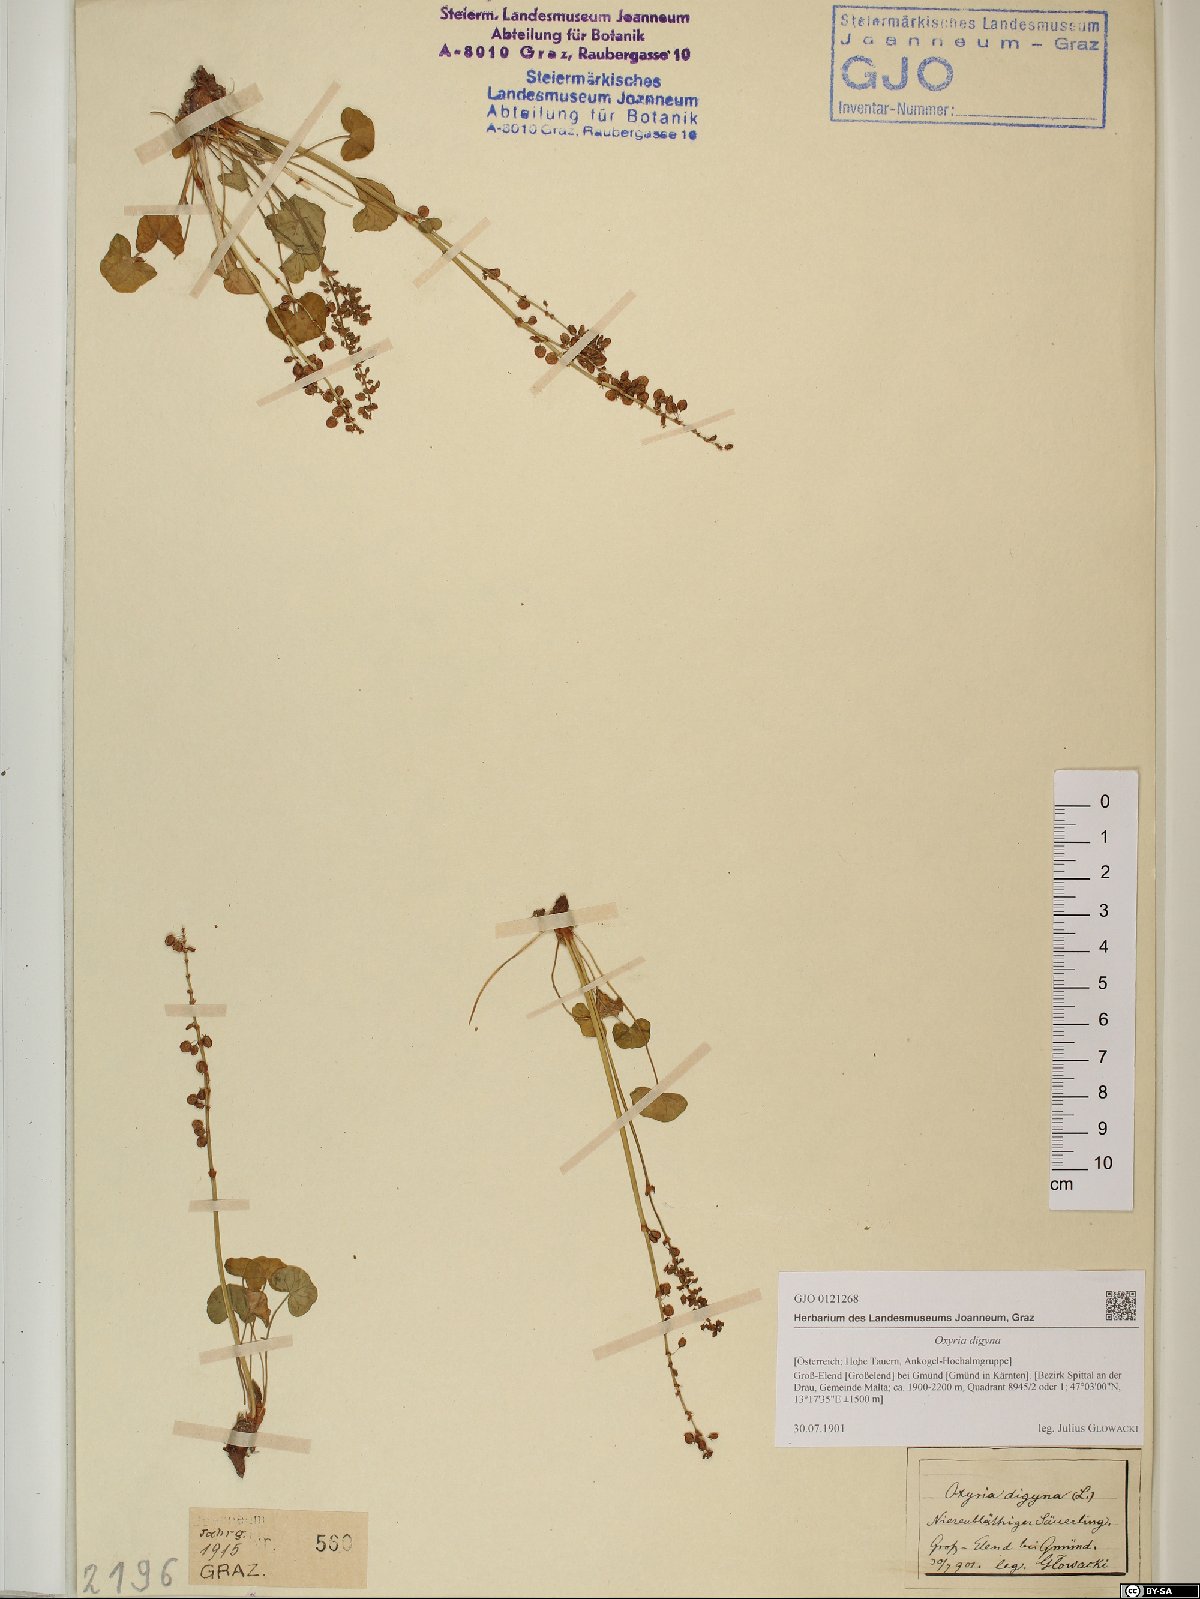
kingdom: Plantae
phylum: Tracheophyta
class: Magnoliopsida
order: Caryophyllales
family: Polygonaceae
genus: Oxyria
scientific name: Oxyria digyna
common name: Alpine mountain-sorrel
